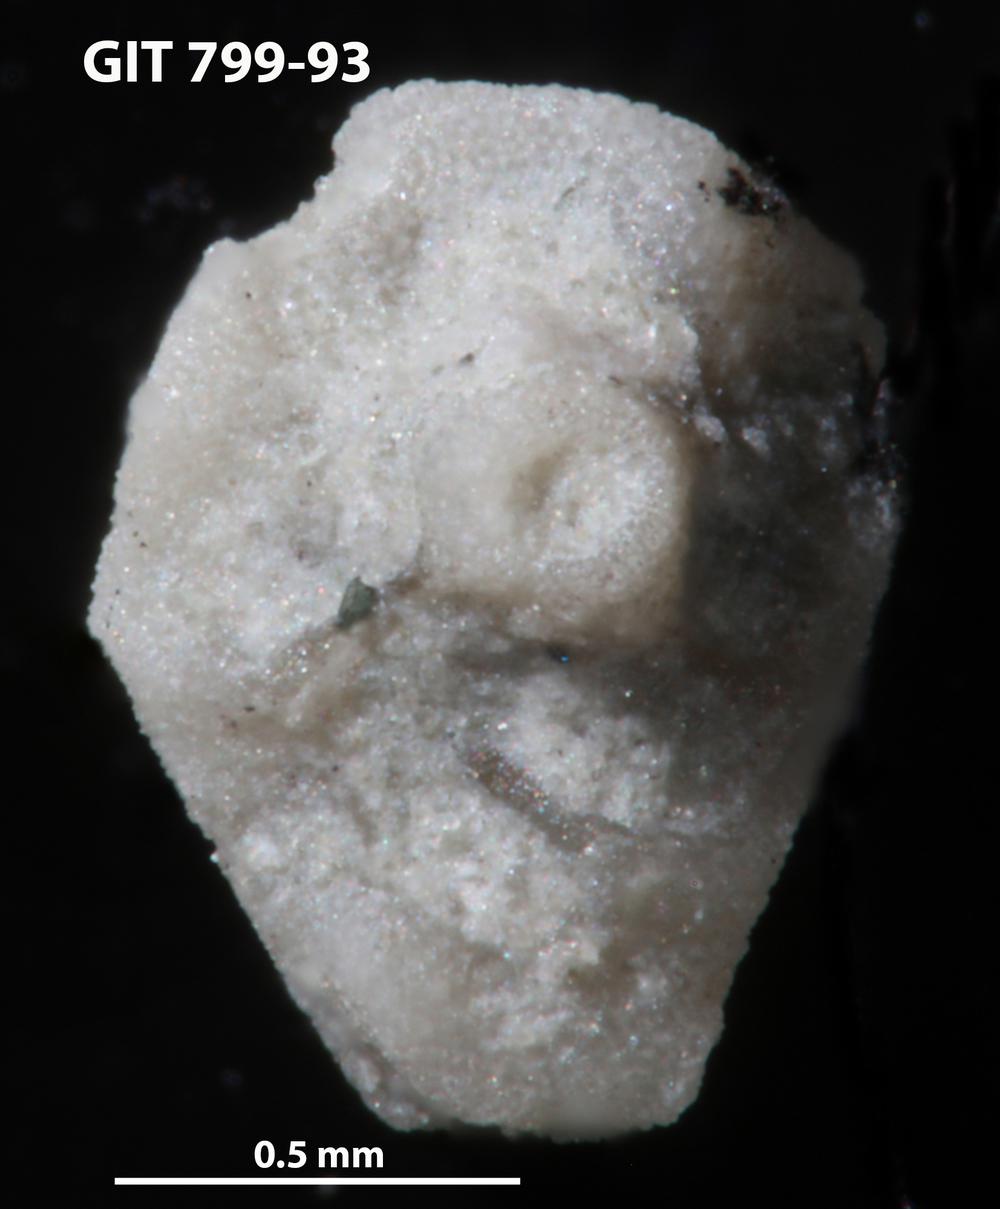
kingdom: Animalia
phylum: Echinodermata
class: Echinoidea
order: Bothriocidaroida
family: Bothriocidaridae
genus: Neobothriocidaris
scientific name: Neobothriocidaris
